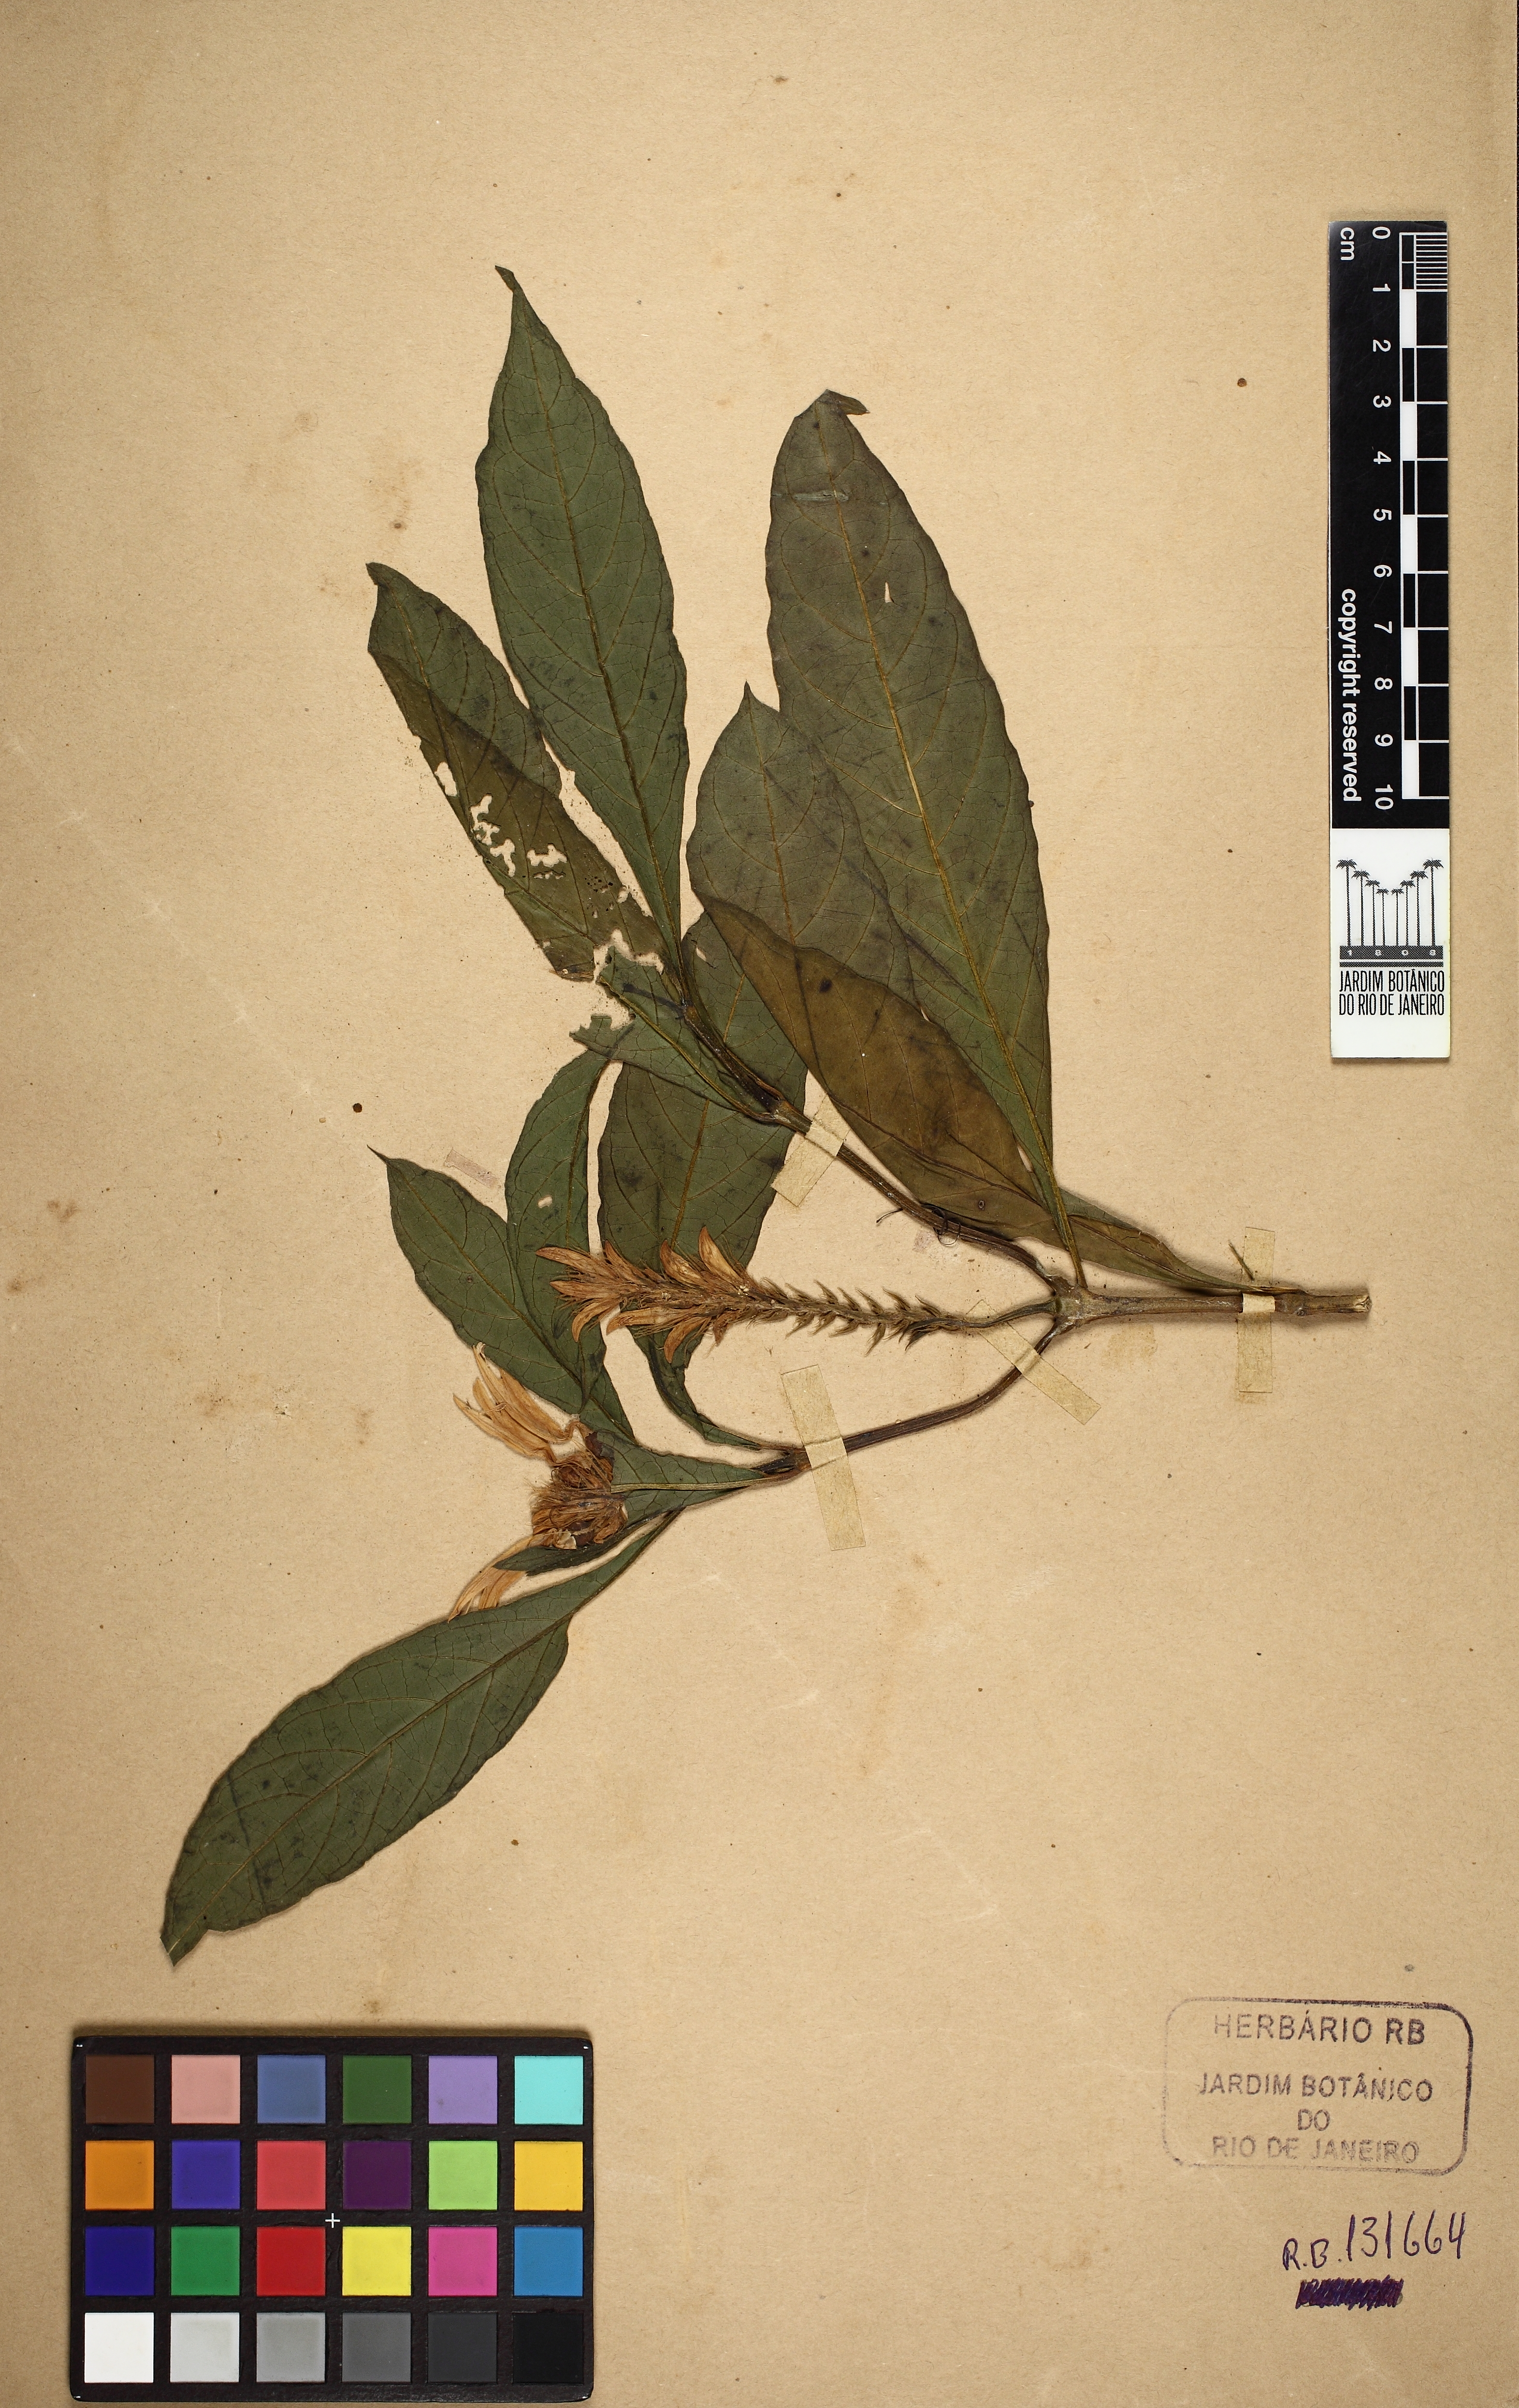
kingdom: Plantae
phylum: Tracheophyta
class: Magnoliopsida
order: Lamiales
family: Acanthaceae
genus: Schaueria
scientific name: Schaueria calytricha
